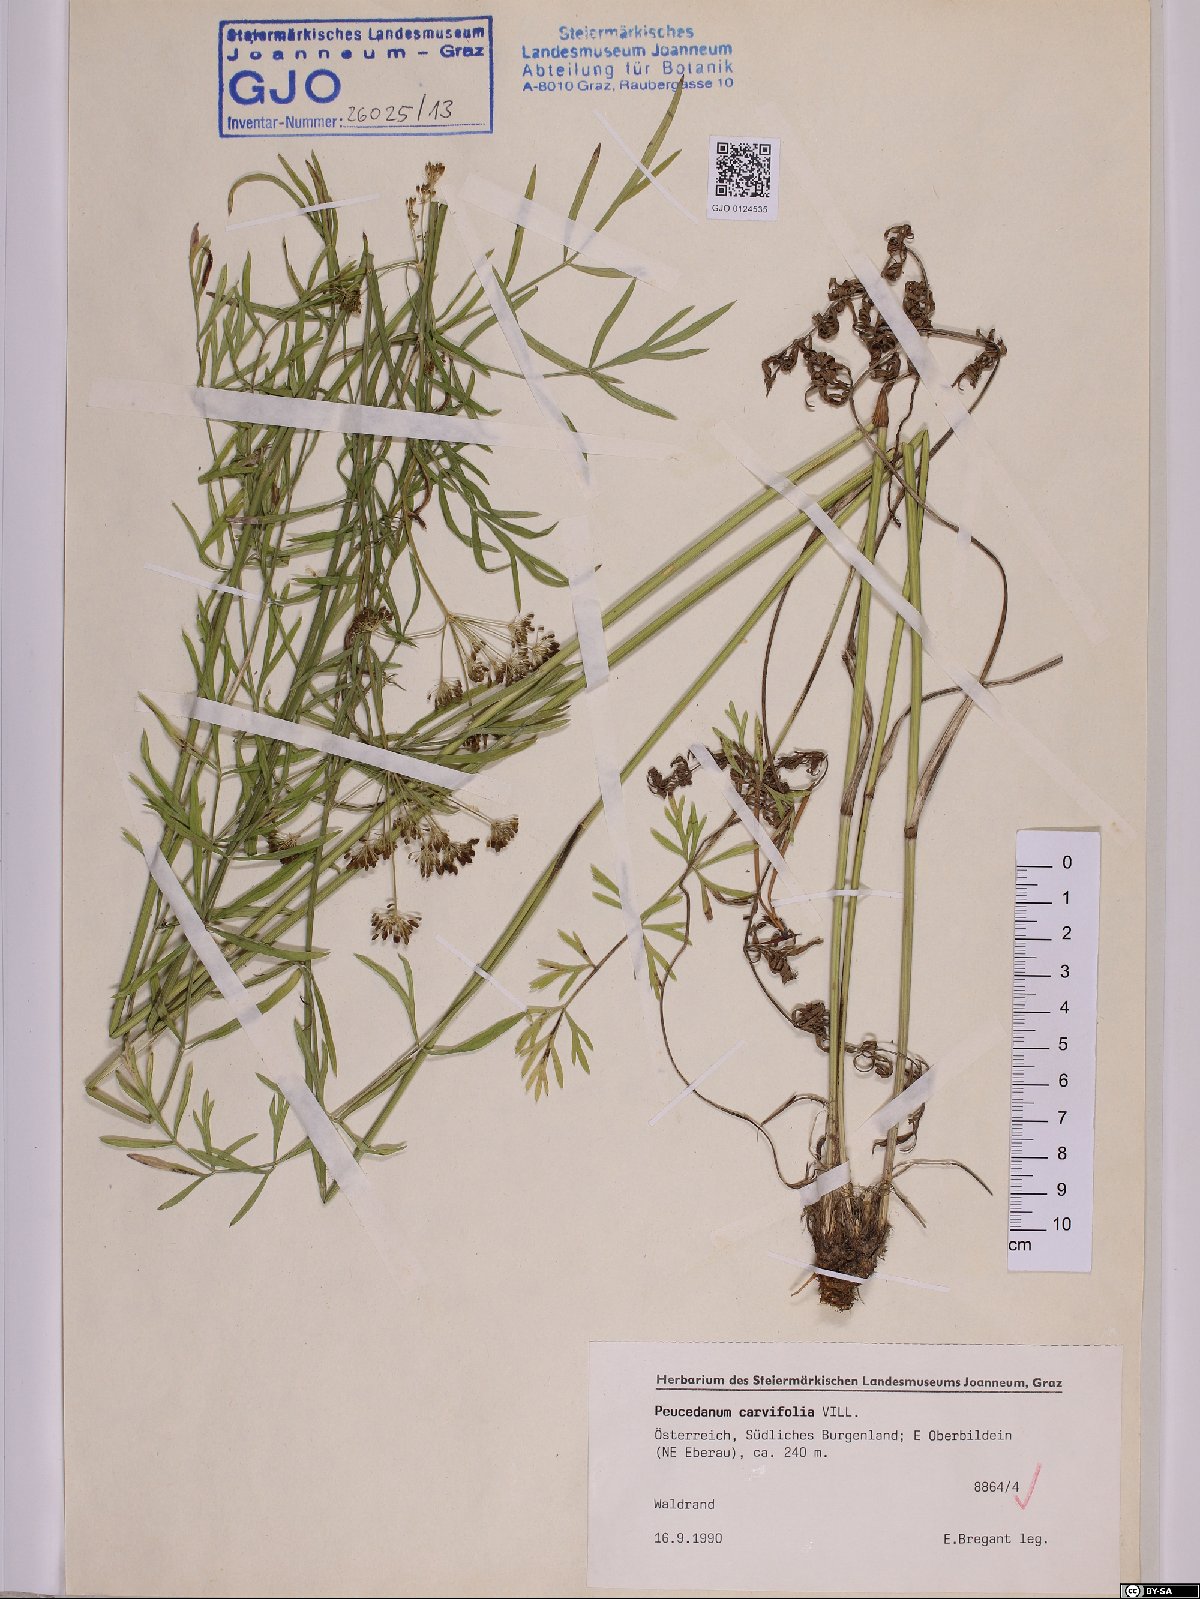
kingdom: Plantae
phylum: Tracheophyta
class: Magnoliopsida
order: Apiales
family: Apiaceae
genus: Dichoropetalum
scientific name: Dichoropetalum carvifolia
